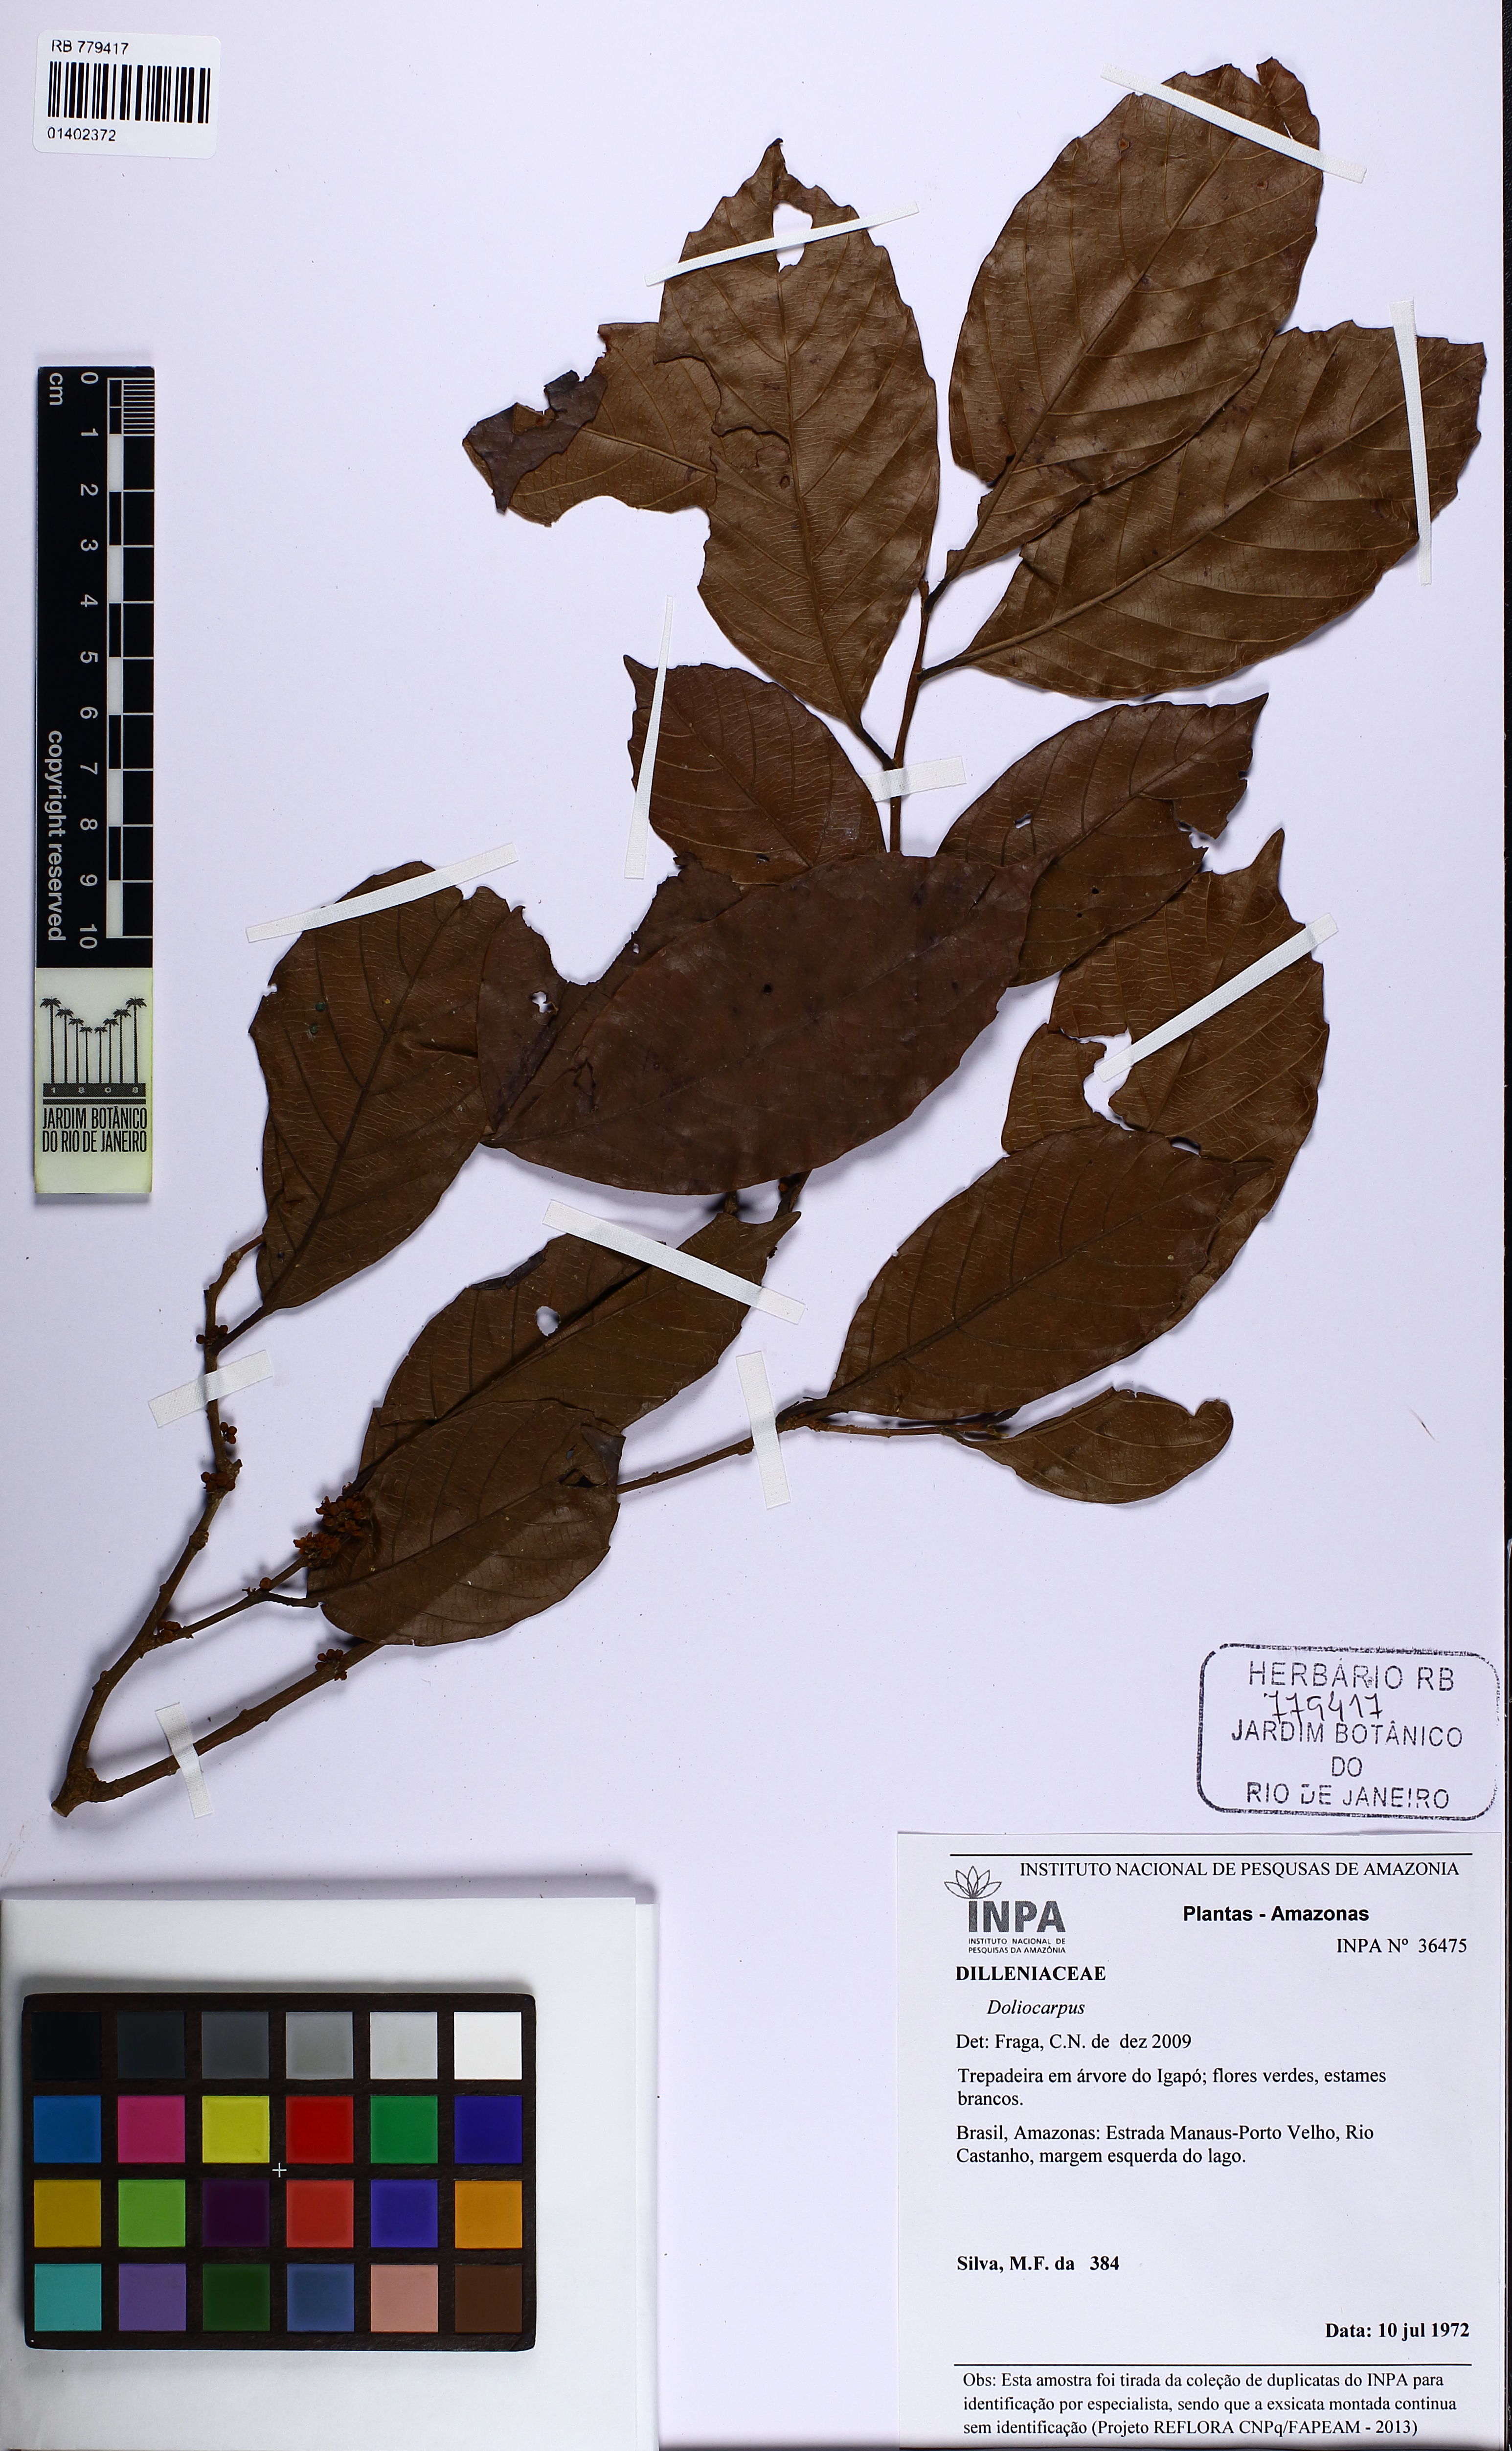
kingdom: Plantae
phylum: Tracheophyta
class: Magnoliopsida
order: Dilleniales
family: Dilleniaceae
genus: Doliocarpus
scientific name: Doliocarpus
